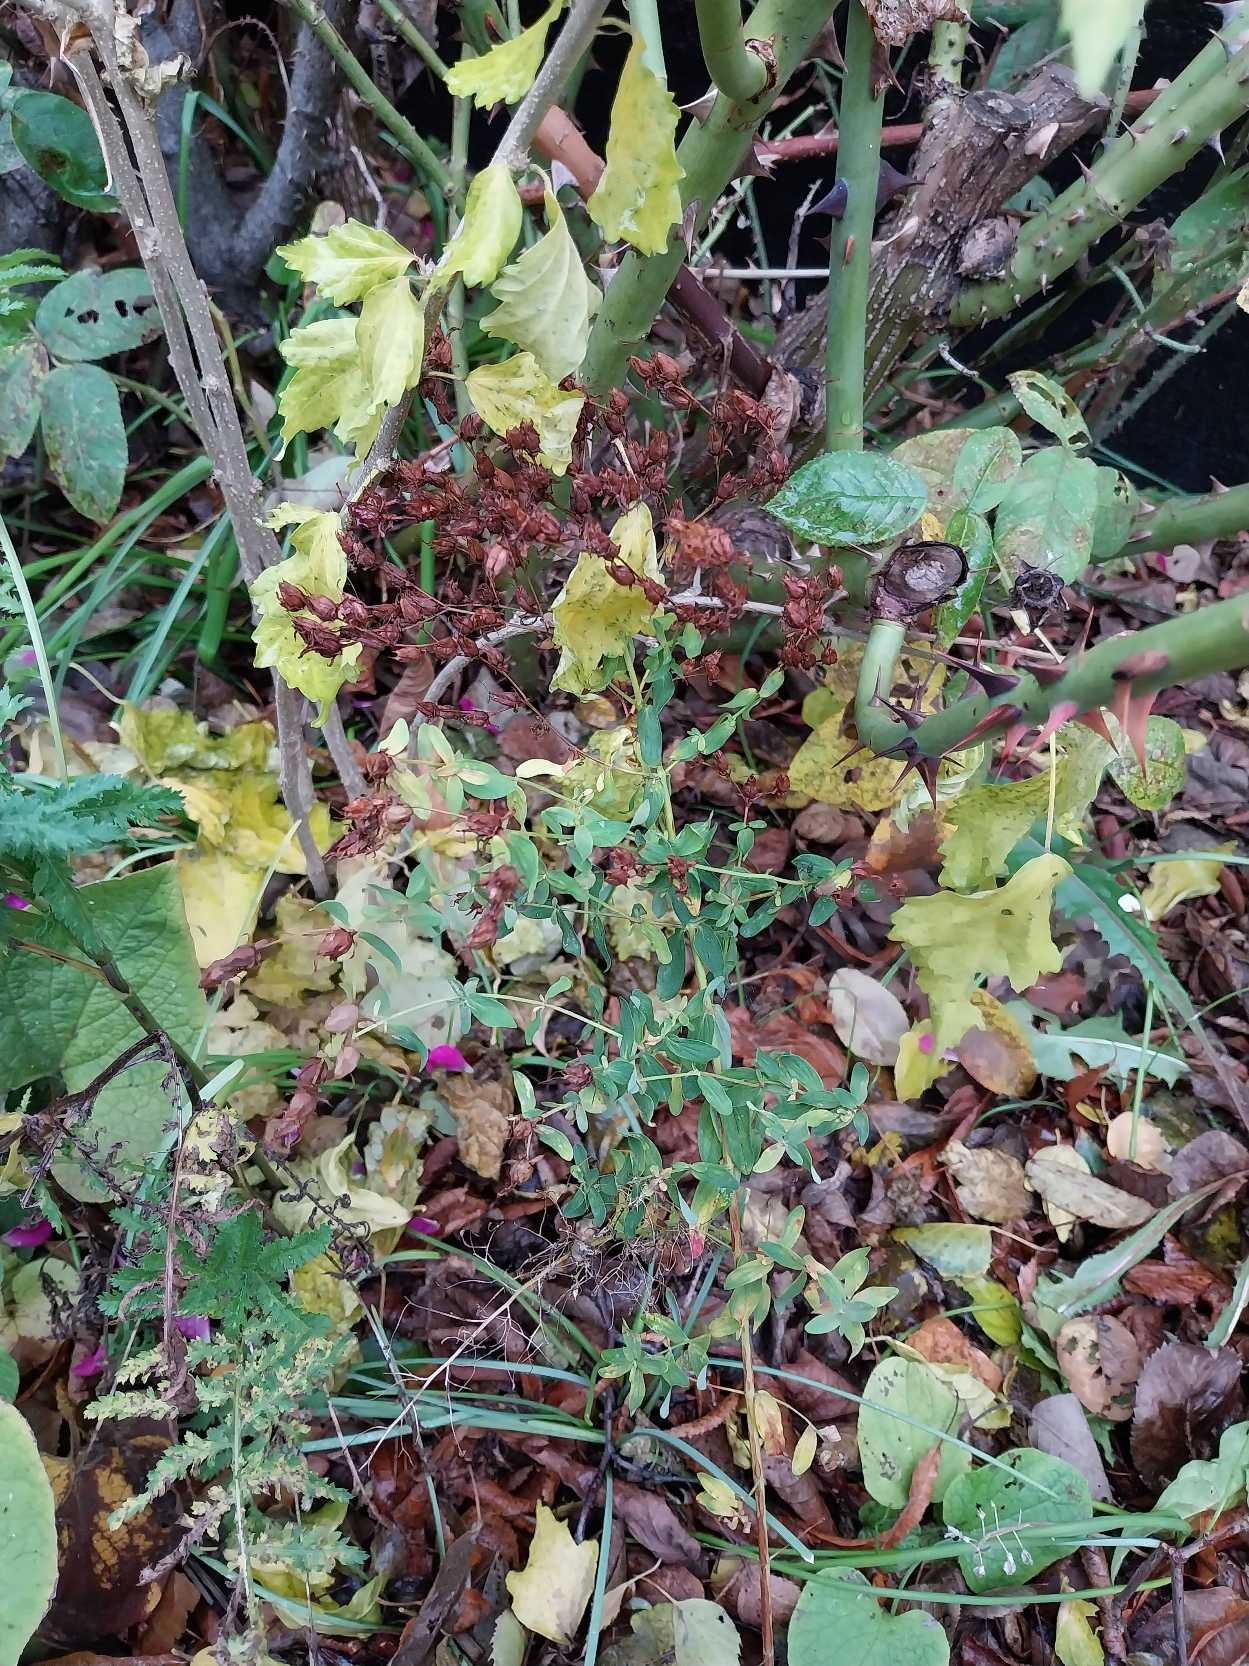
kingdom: Plantae
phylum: Tracheophyta
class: Magnoliopsida
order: Malpighiales
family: Hypericaceae
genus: Hypericum
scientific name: Hypericum perforatum
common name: Prikbladet perikon
